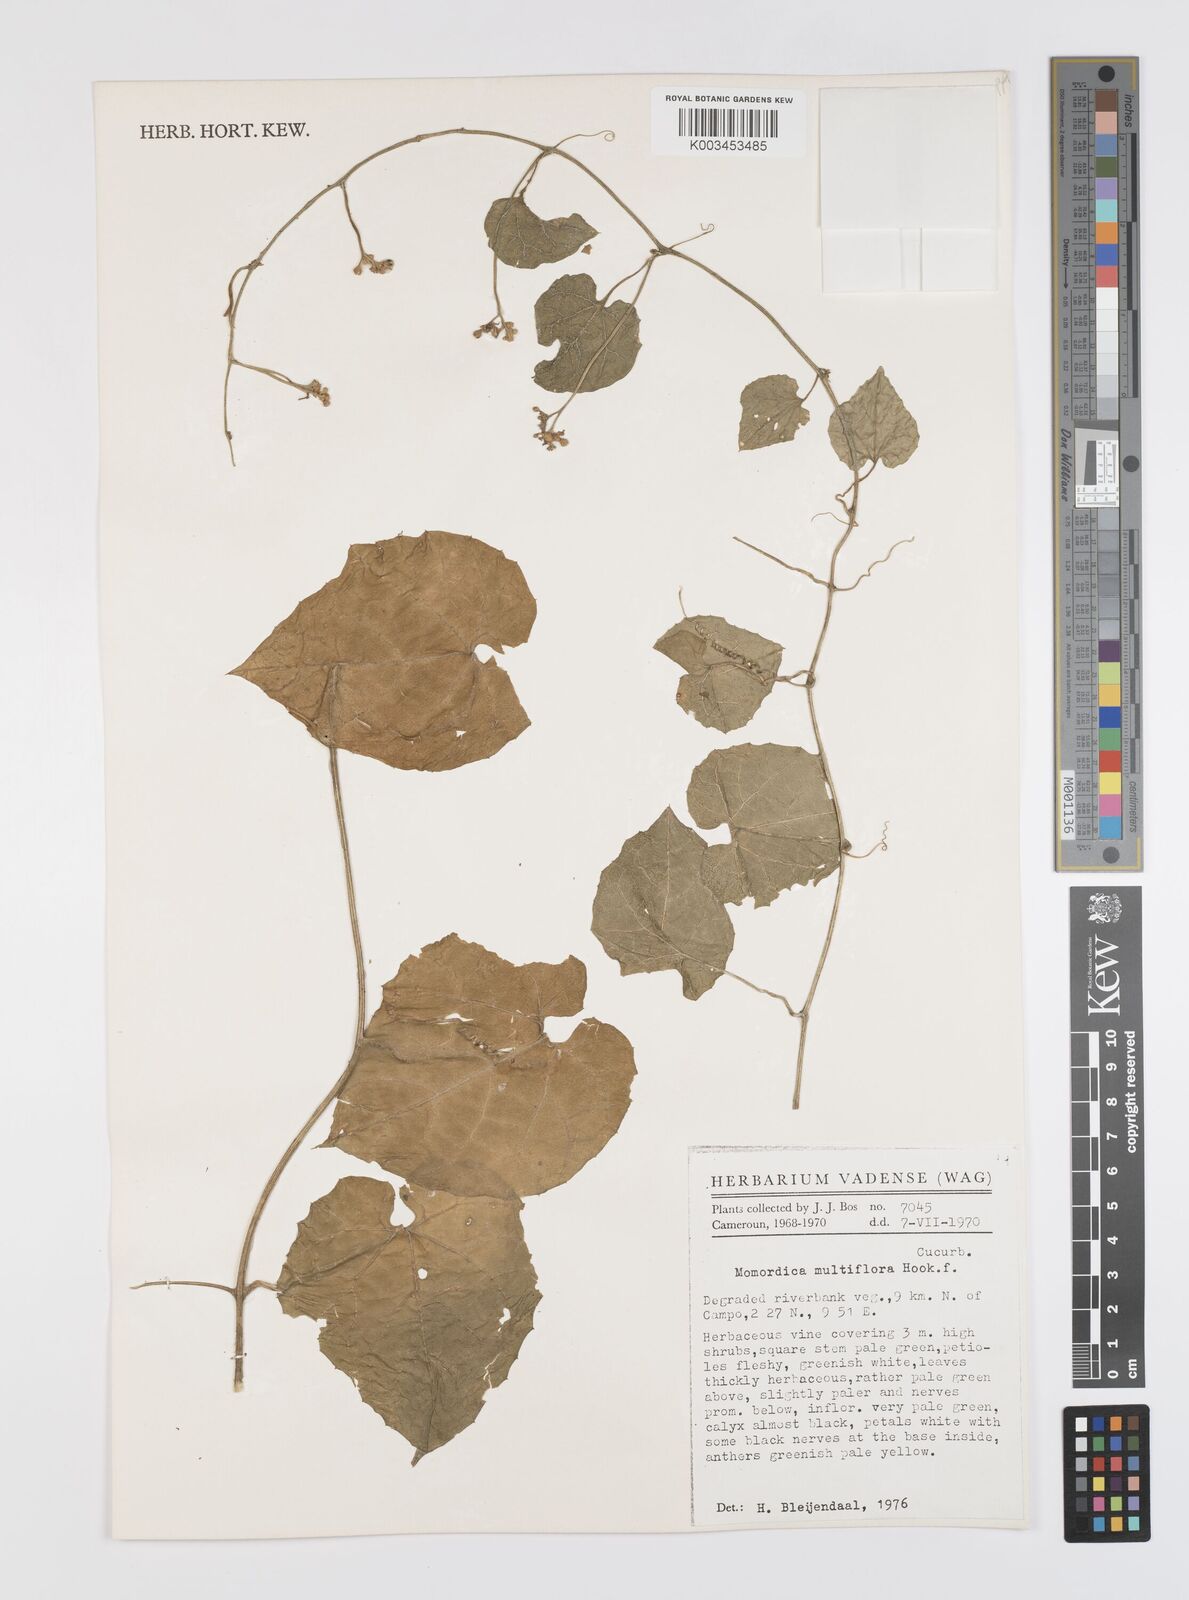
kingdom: Plantae
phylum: Tracheophyta
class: Magnoliopsida
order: Cucurbitales
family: Cucurbitaceae
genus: Momordica
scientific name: Momordica multiflora
